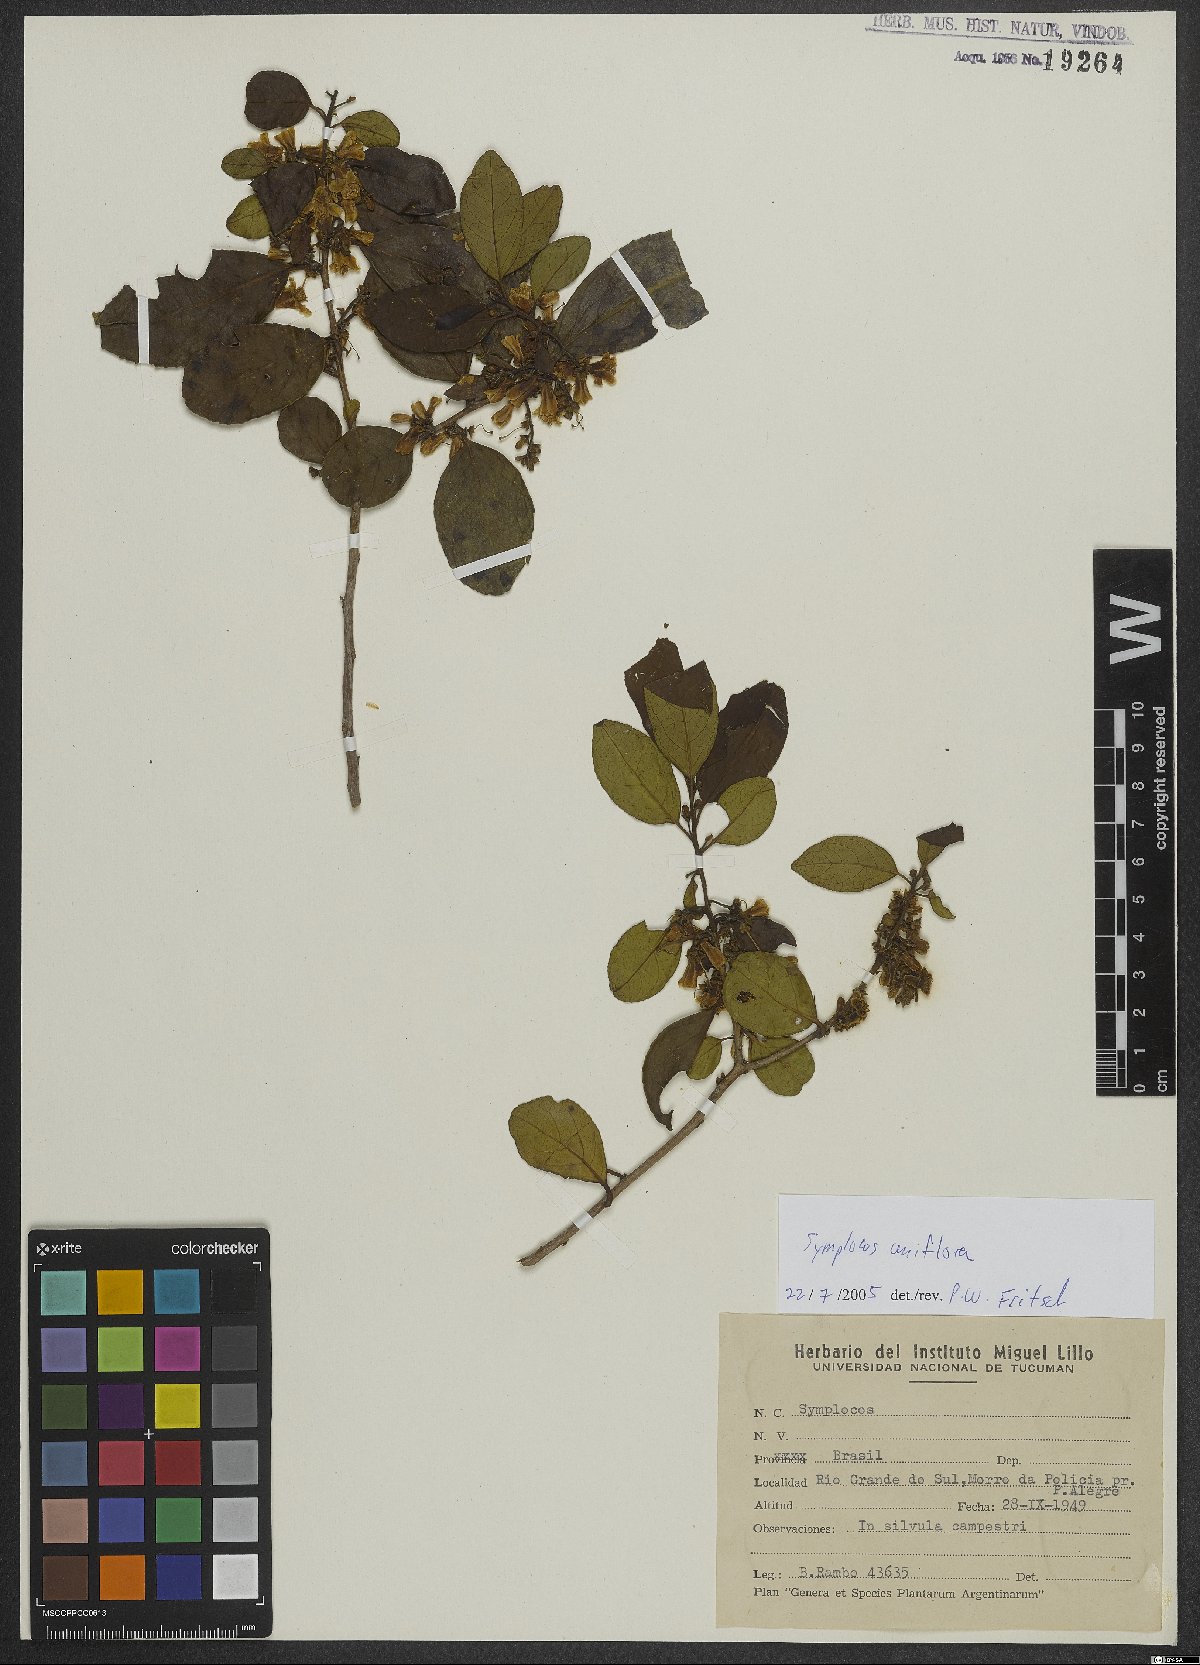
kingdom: Plantae
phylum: Tracheophyta
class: Magnoliopsida
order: Ericales
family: Symplocaceae
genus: Symplocos
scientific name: Symplocos uniflora
